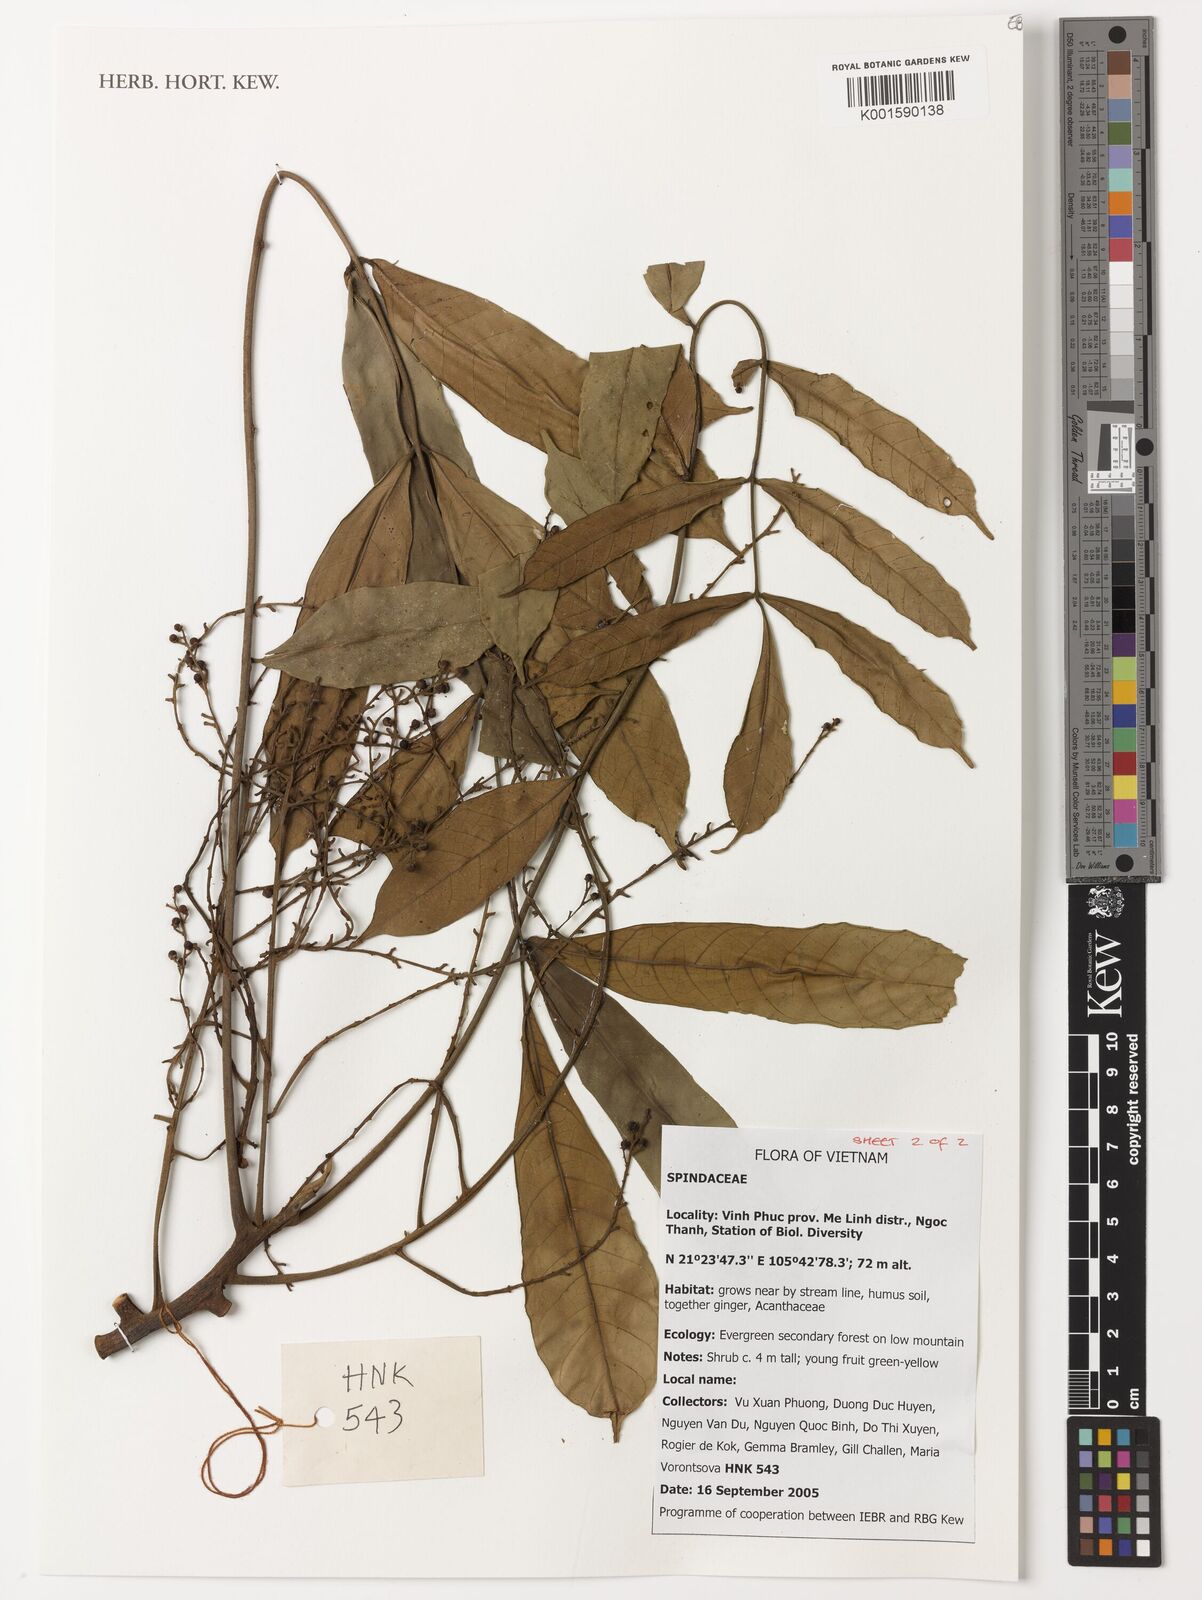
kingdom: Plantae
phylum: Tracheophyta
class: Magnoliopsida
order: Sapindales
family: Sapindaceae
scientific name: Sapindaceae
